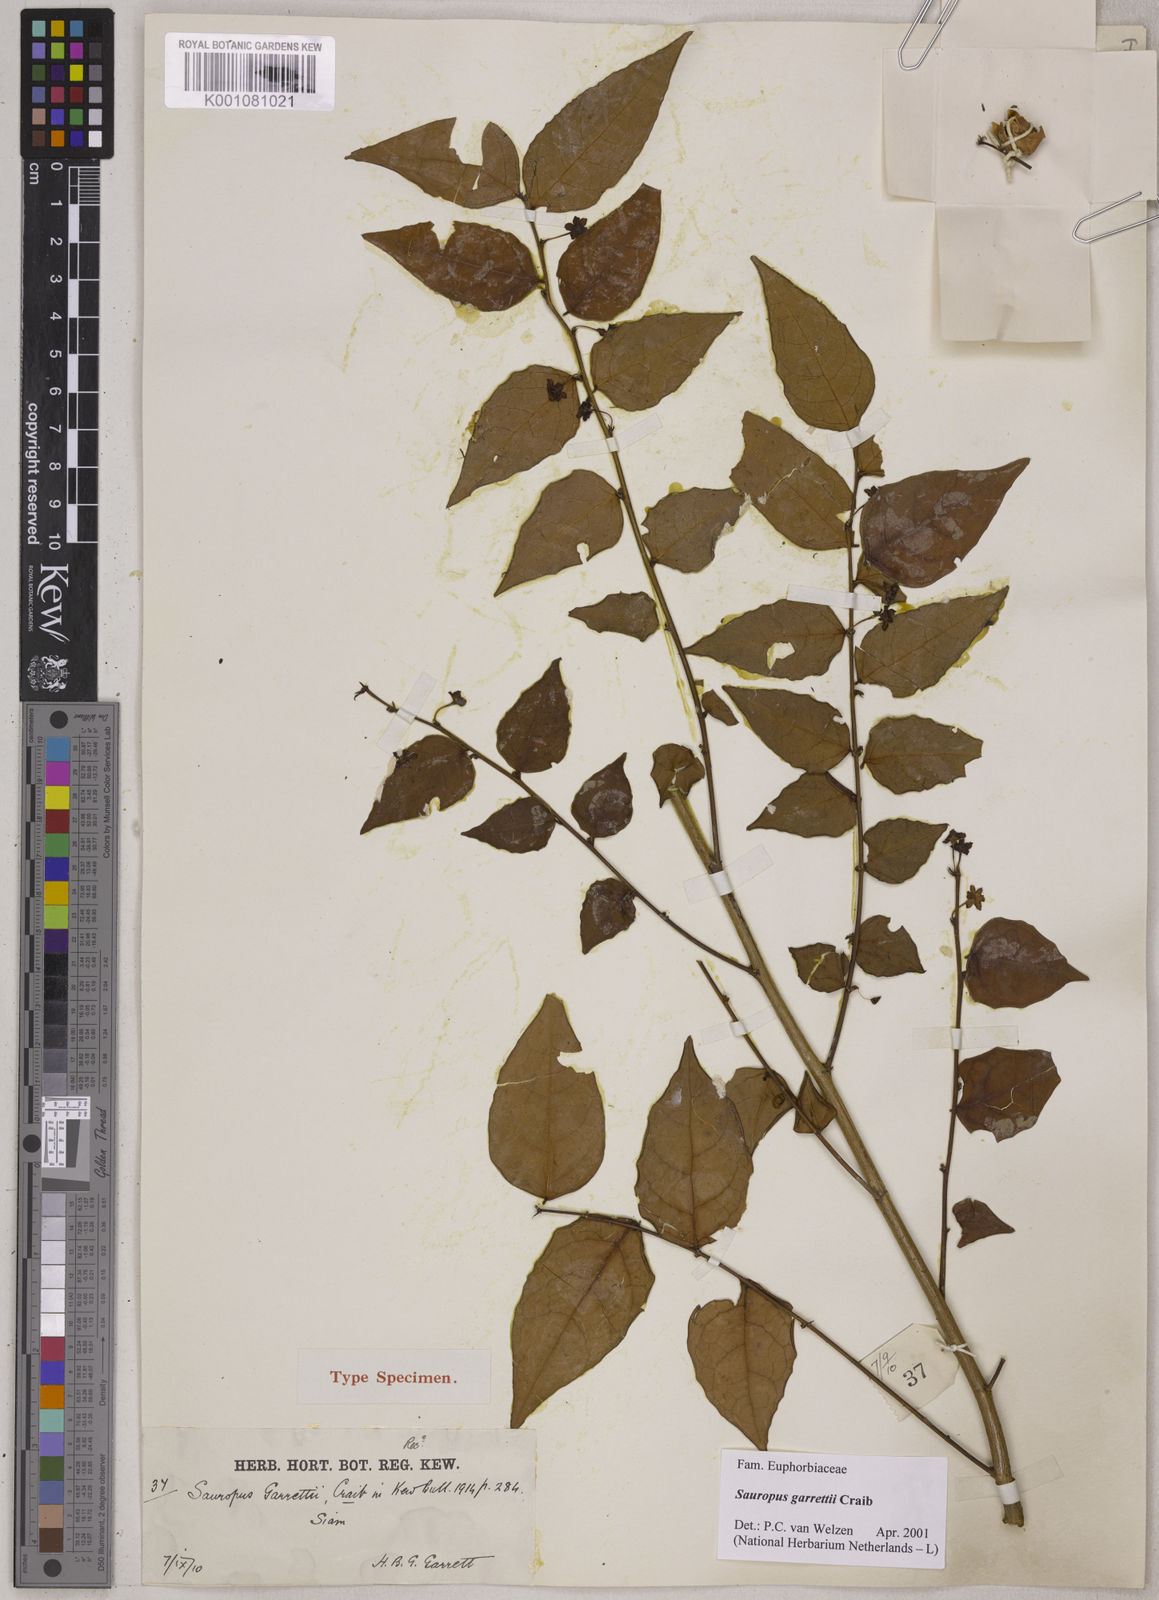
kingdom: Plantae
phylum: Tracheophyta
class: Magnoliopsida
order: Malpighiales
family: Phyllanthaceae
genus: Breynia
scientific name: Breynia garrettii
